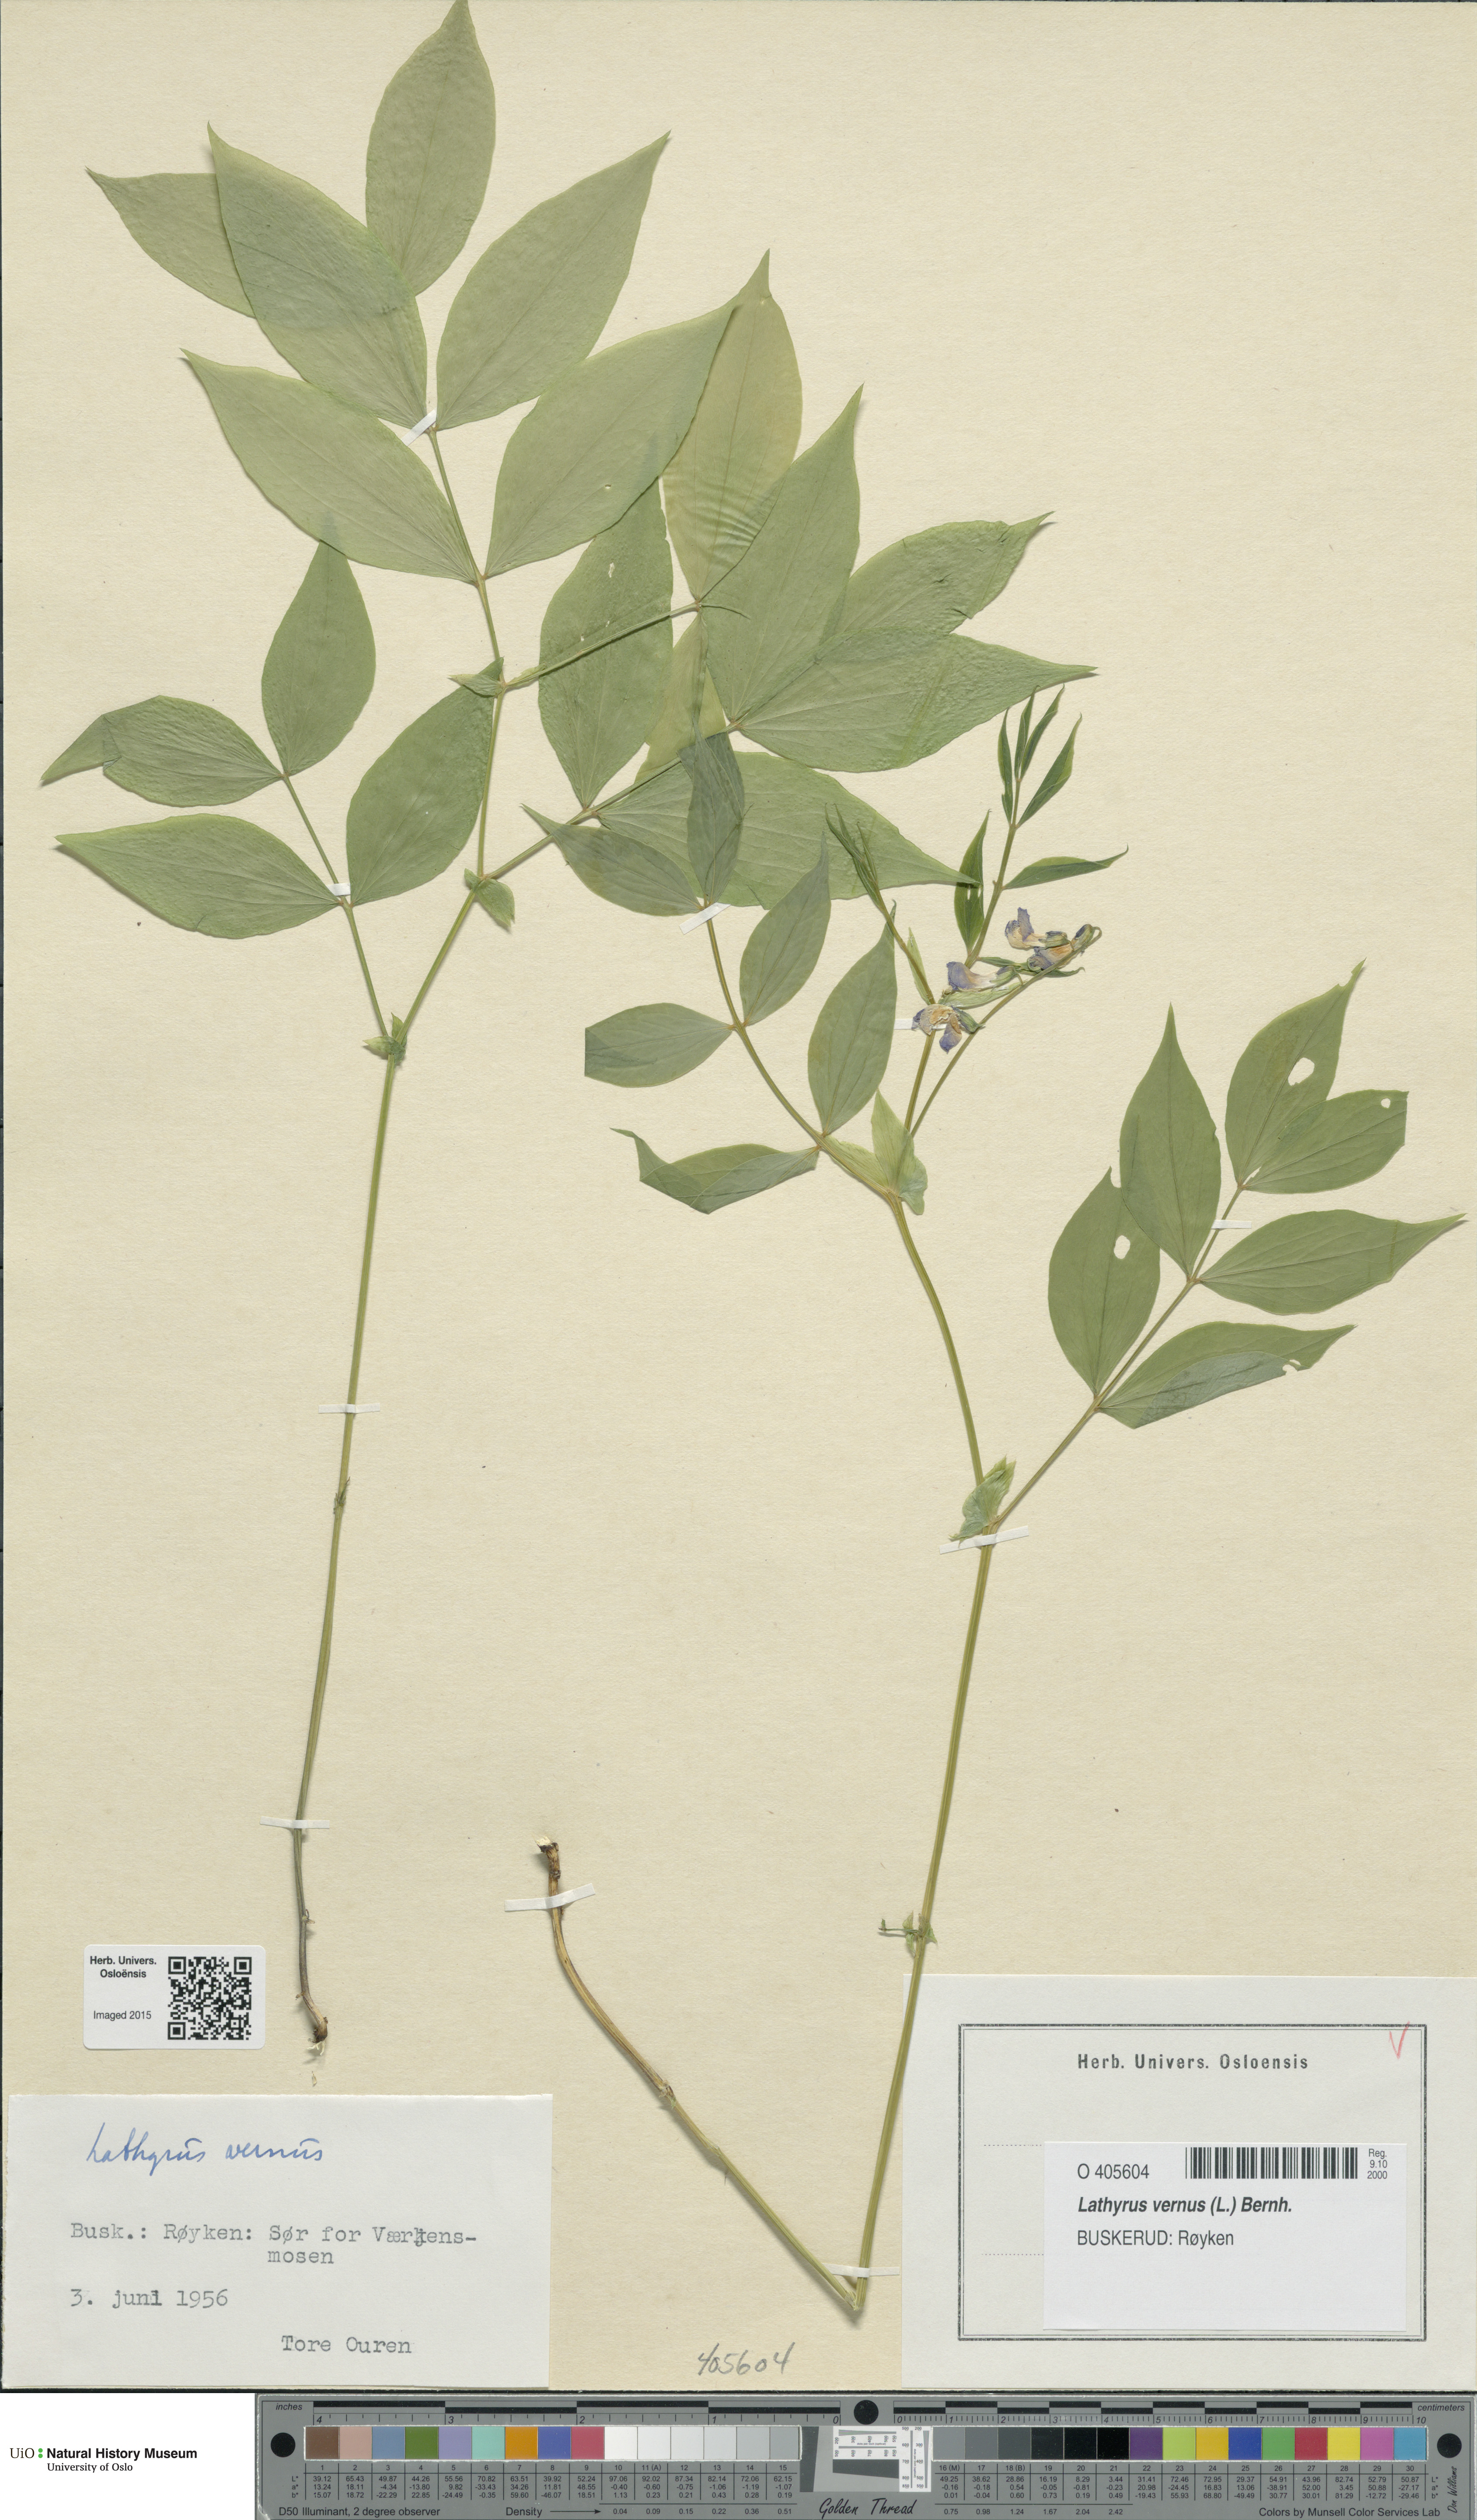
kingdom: Plantae
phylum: Tracheophyta
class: Magnoliopsida
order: Fabales
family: Fabaceae
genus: Lathyrus
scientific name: Lathyrus vernus
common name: Spring pea
